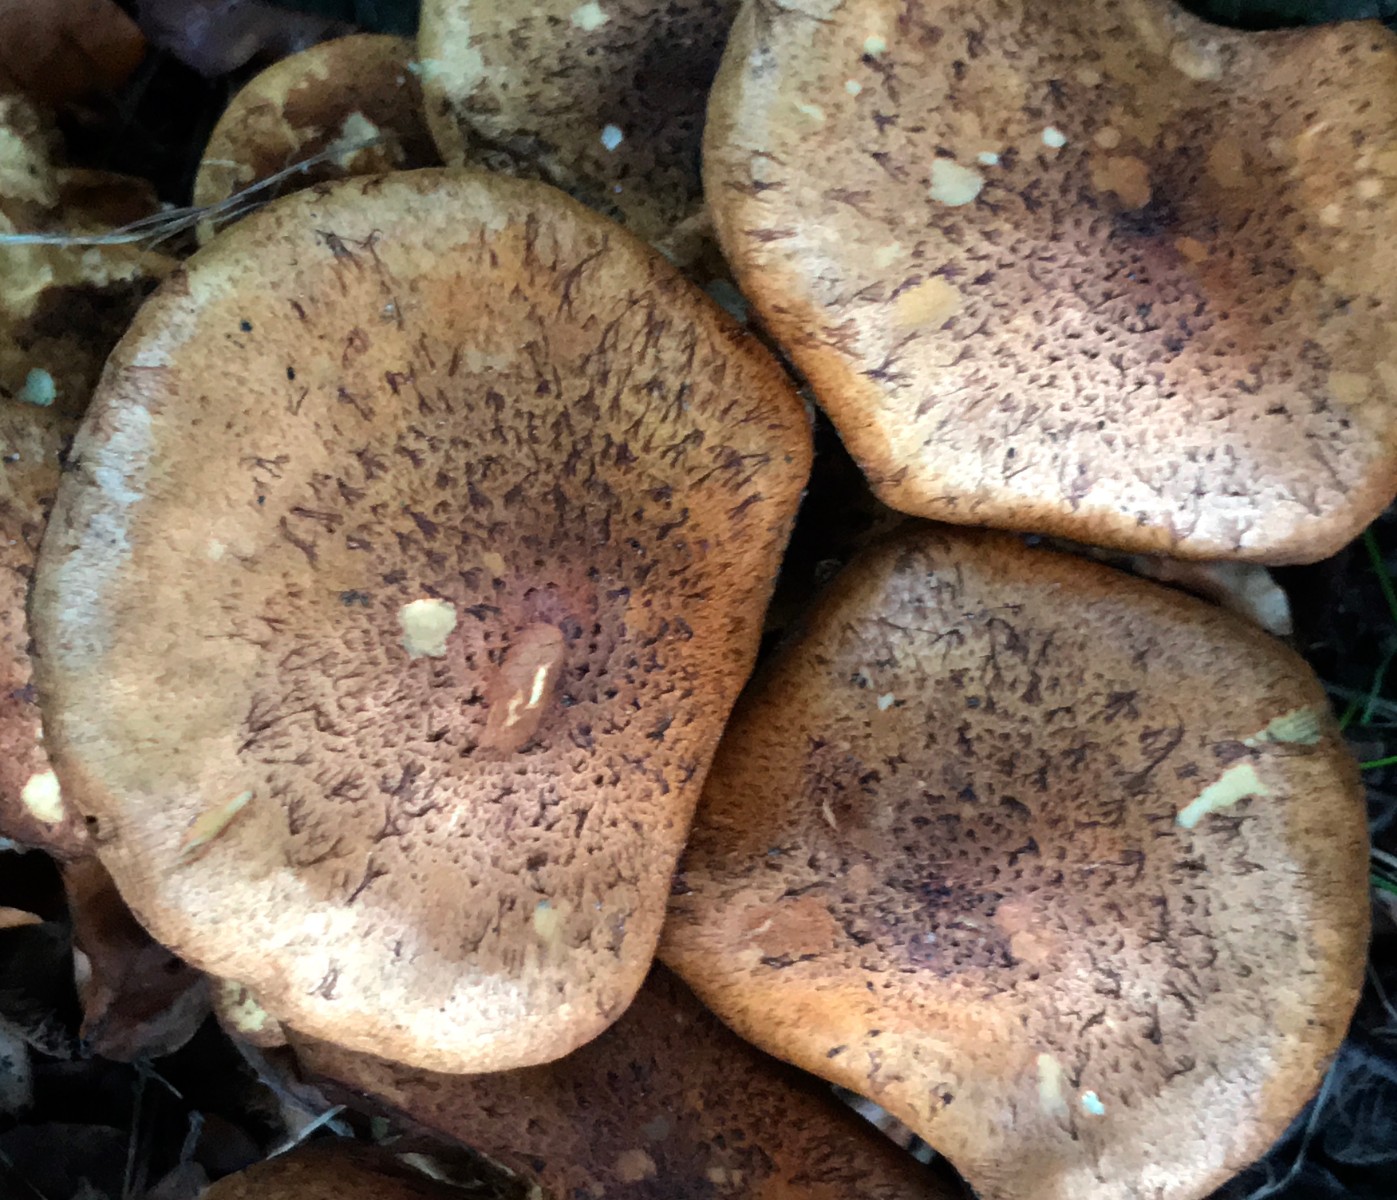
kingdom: Fungi
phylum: Basidiomycota
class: Agaricomycetes
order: Agaricales
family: Strophariaceae
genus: Pholiota
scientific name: Pholiota squarrosa
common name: krumskællet skælhat
